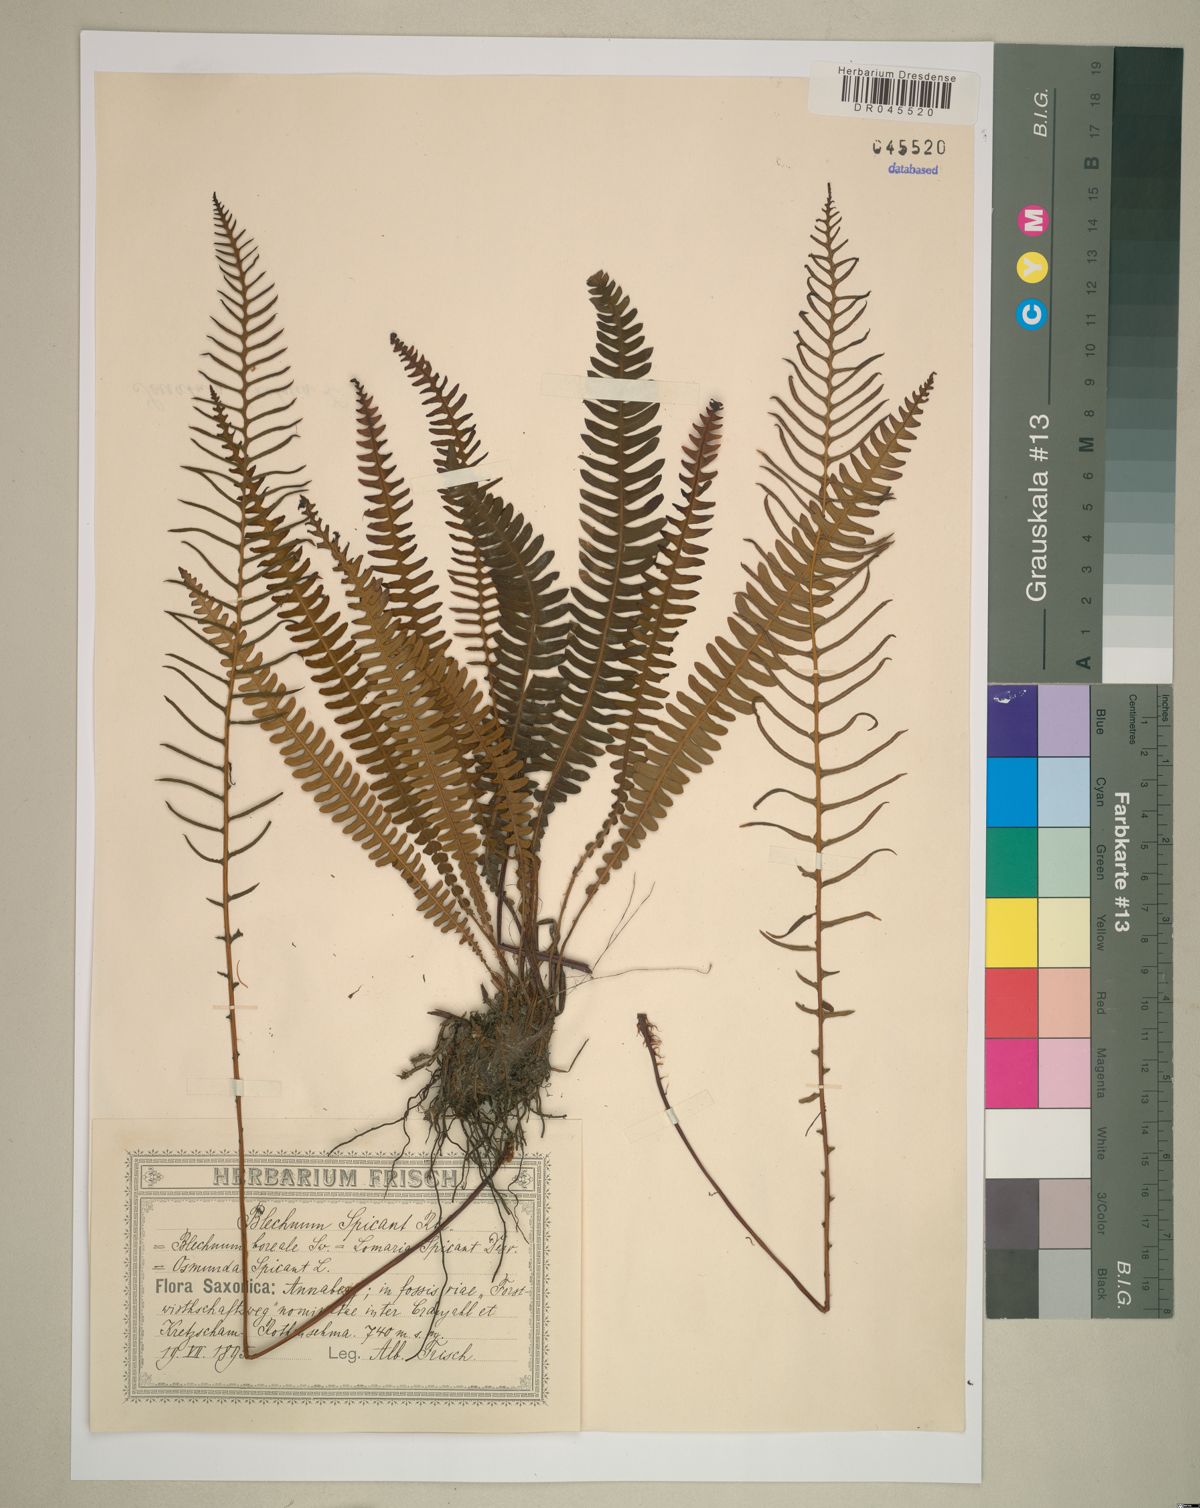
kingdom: Plantae
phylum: Tracheophyta
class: Polypodiopsida
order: Polypodiales
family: Blechnaceae
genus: Struthiopteris
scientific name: Struthiopteris spicant
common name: Deer fern
